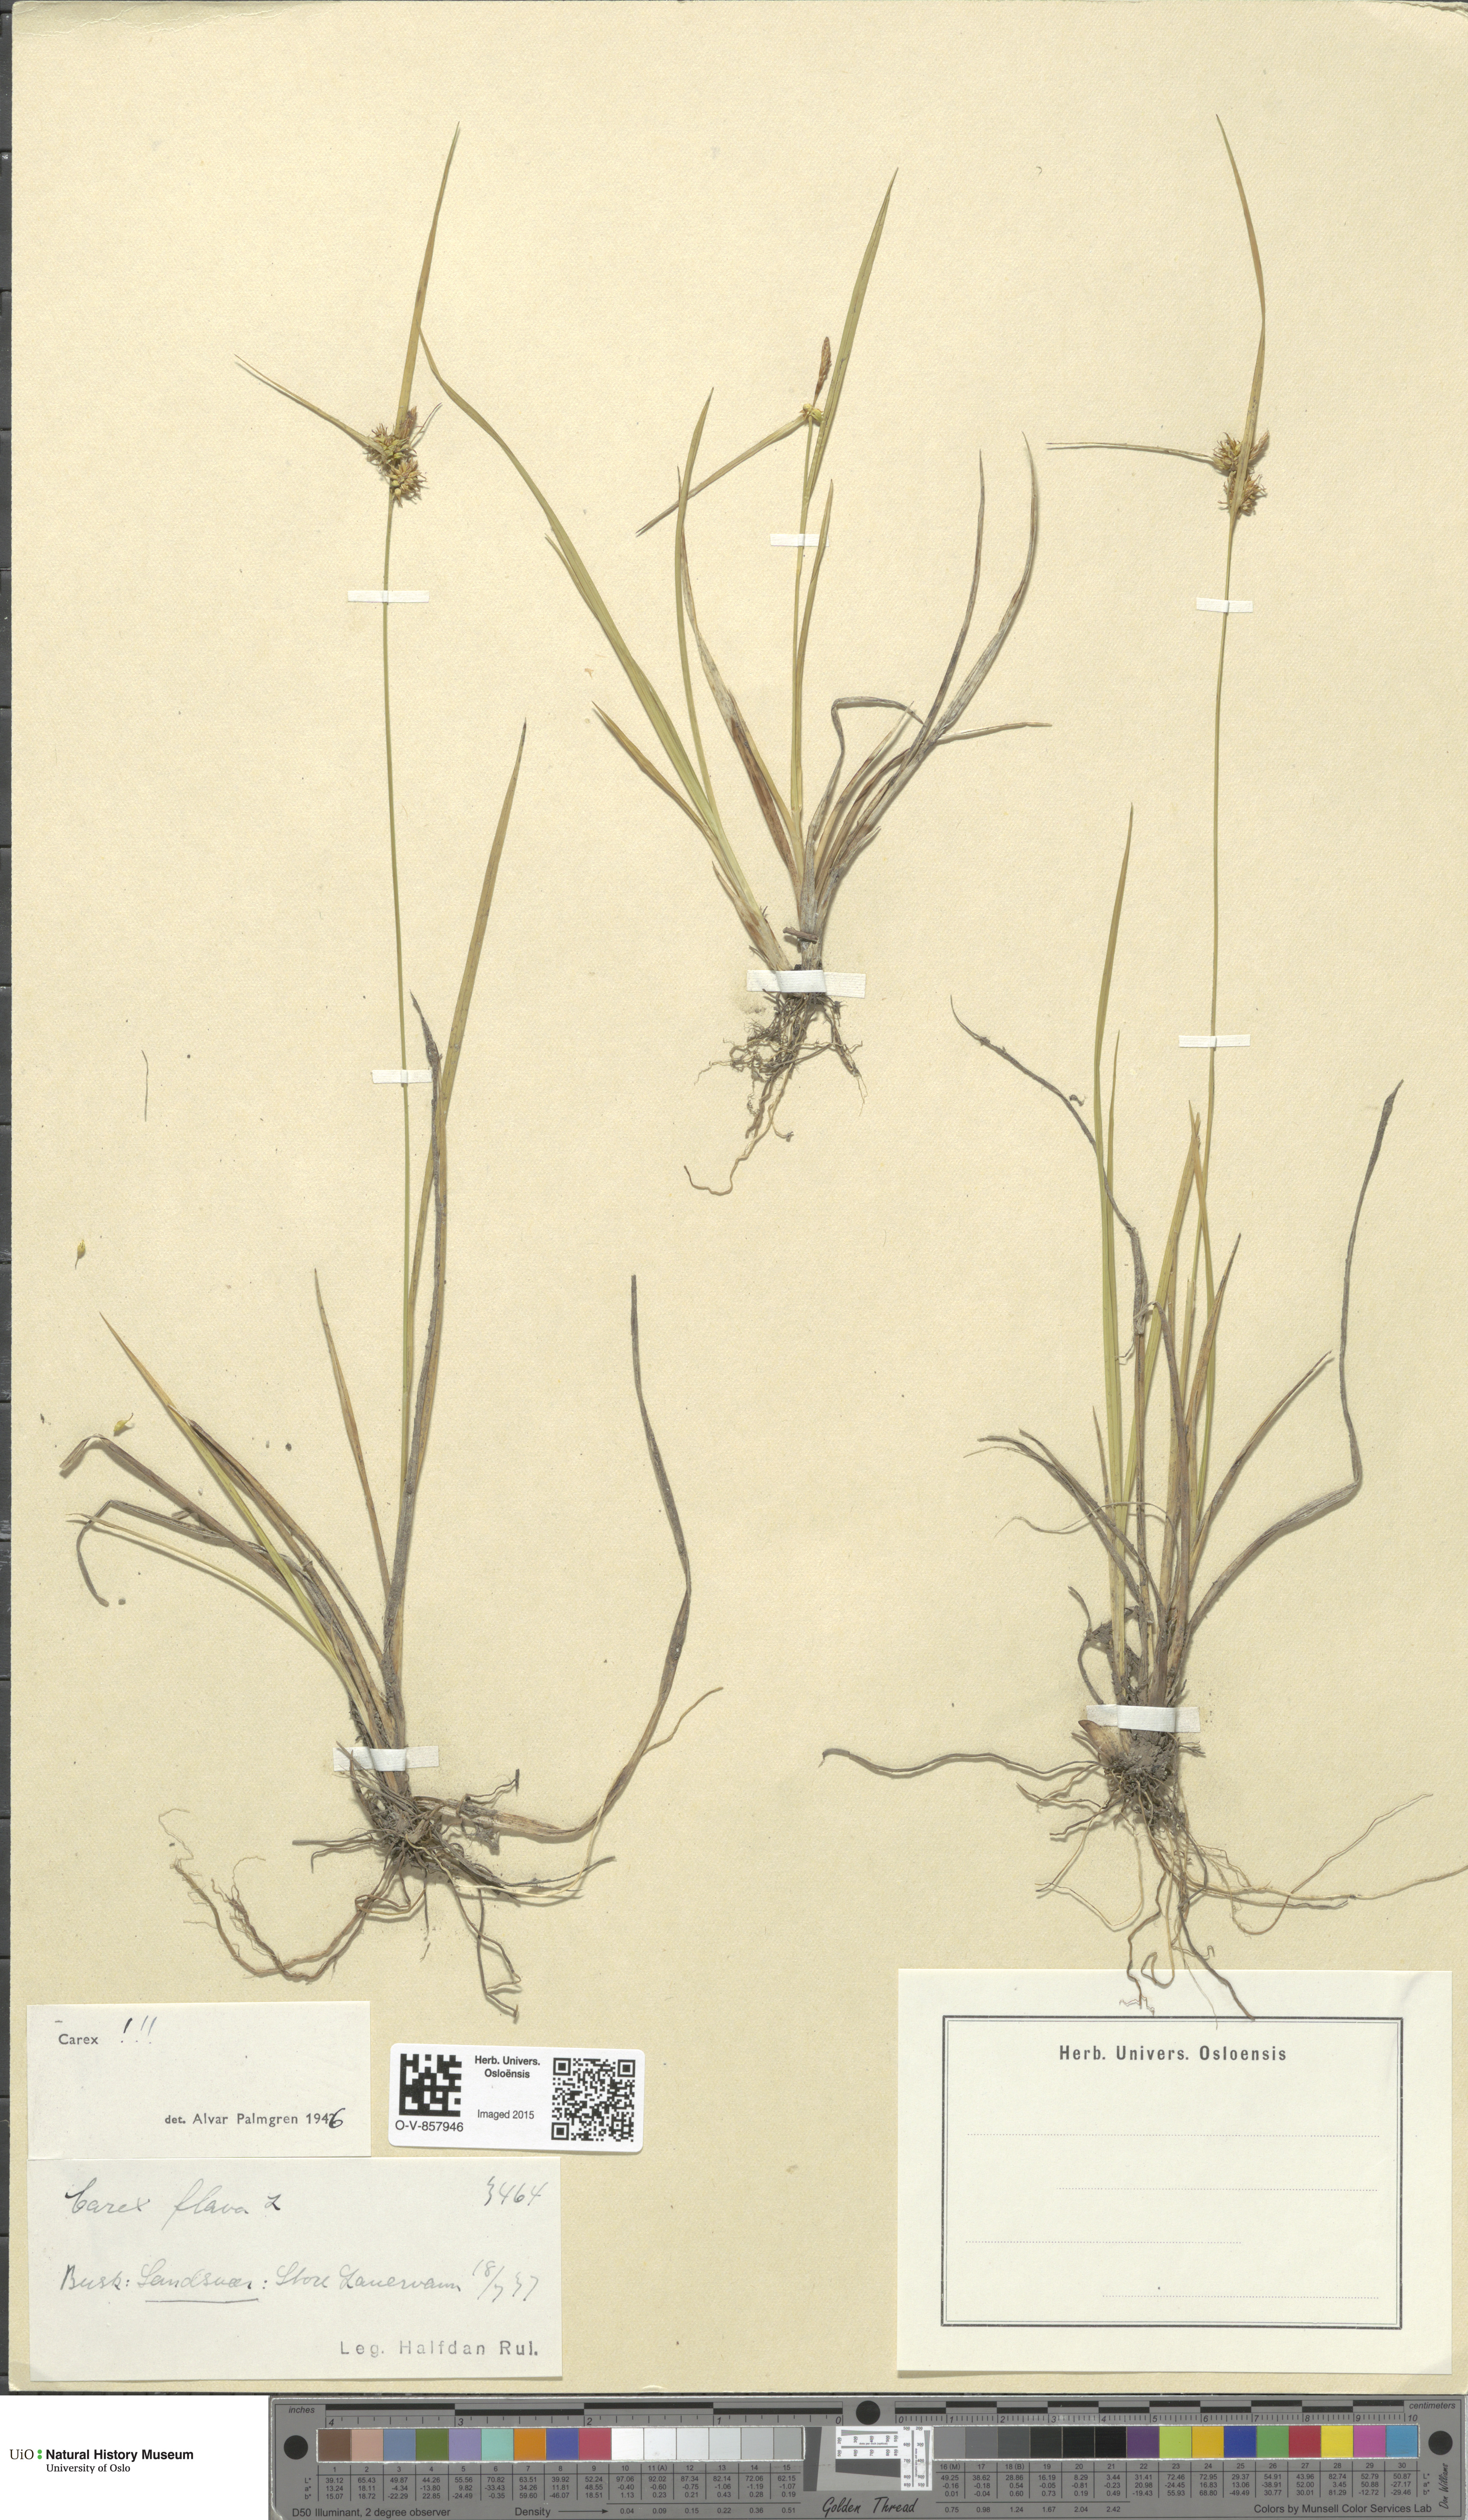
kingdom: Plantae
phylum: Tracheophyta
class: Liliopsida
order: Poales
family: Cyperaceae
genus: Carex
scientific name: Carex flava
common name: Large yellow-sedge
